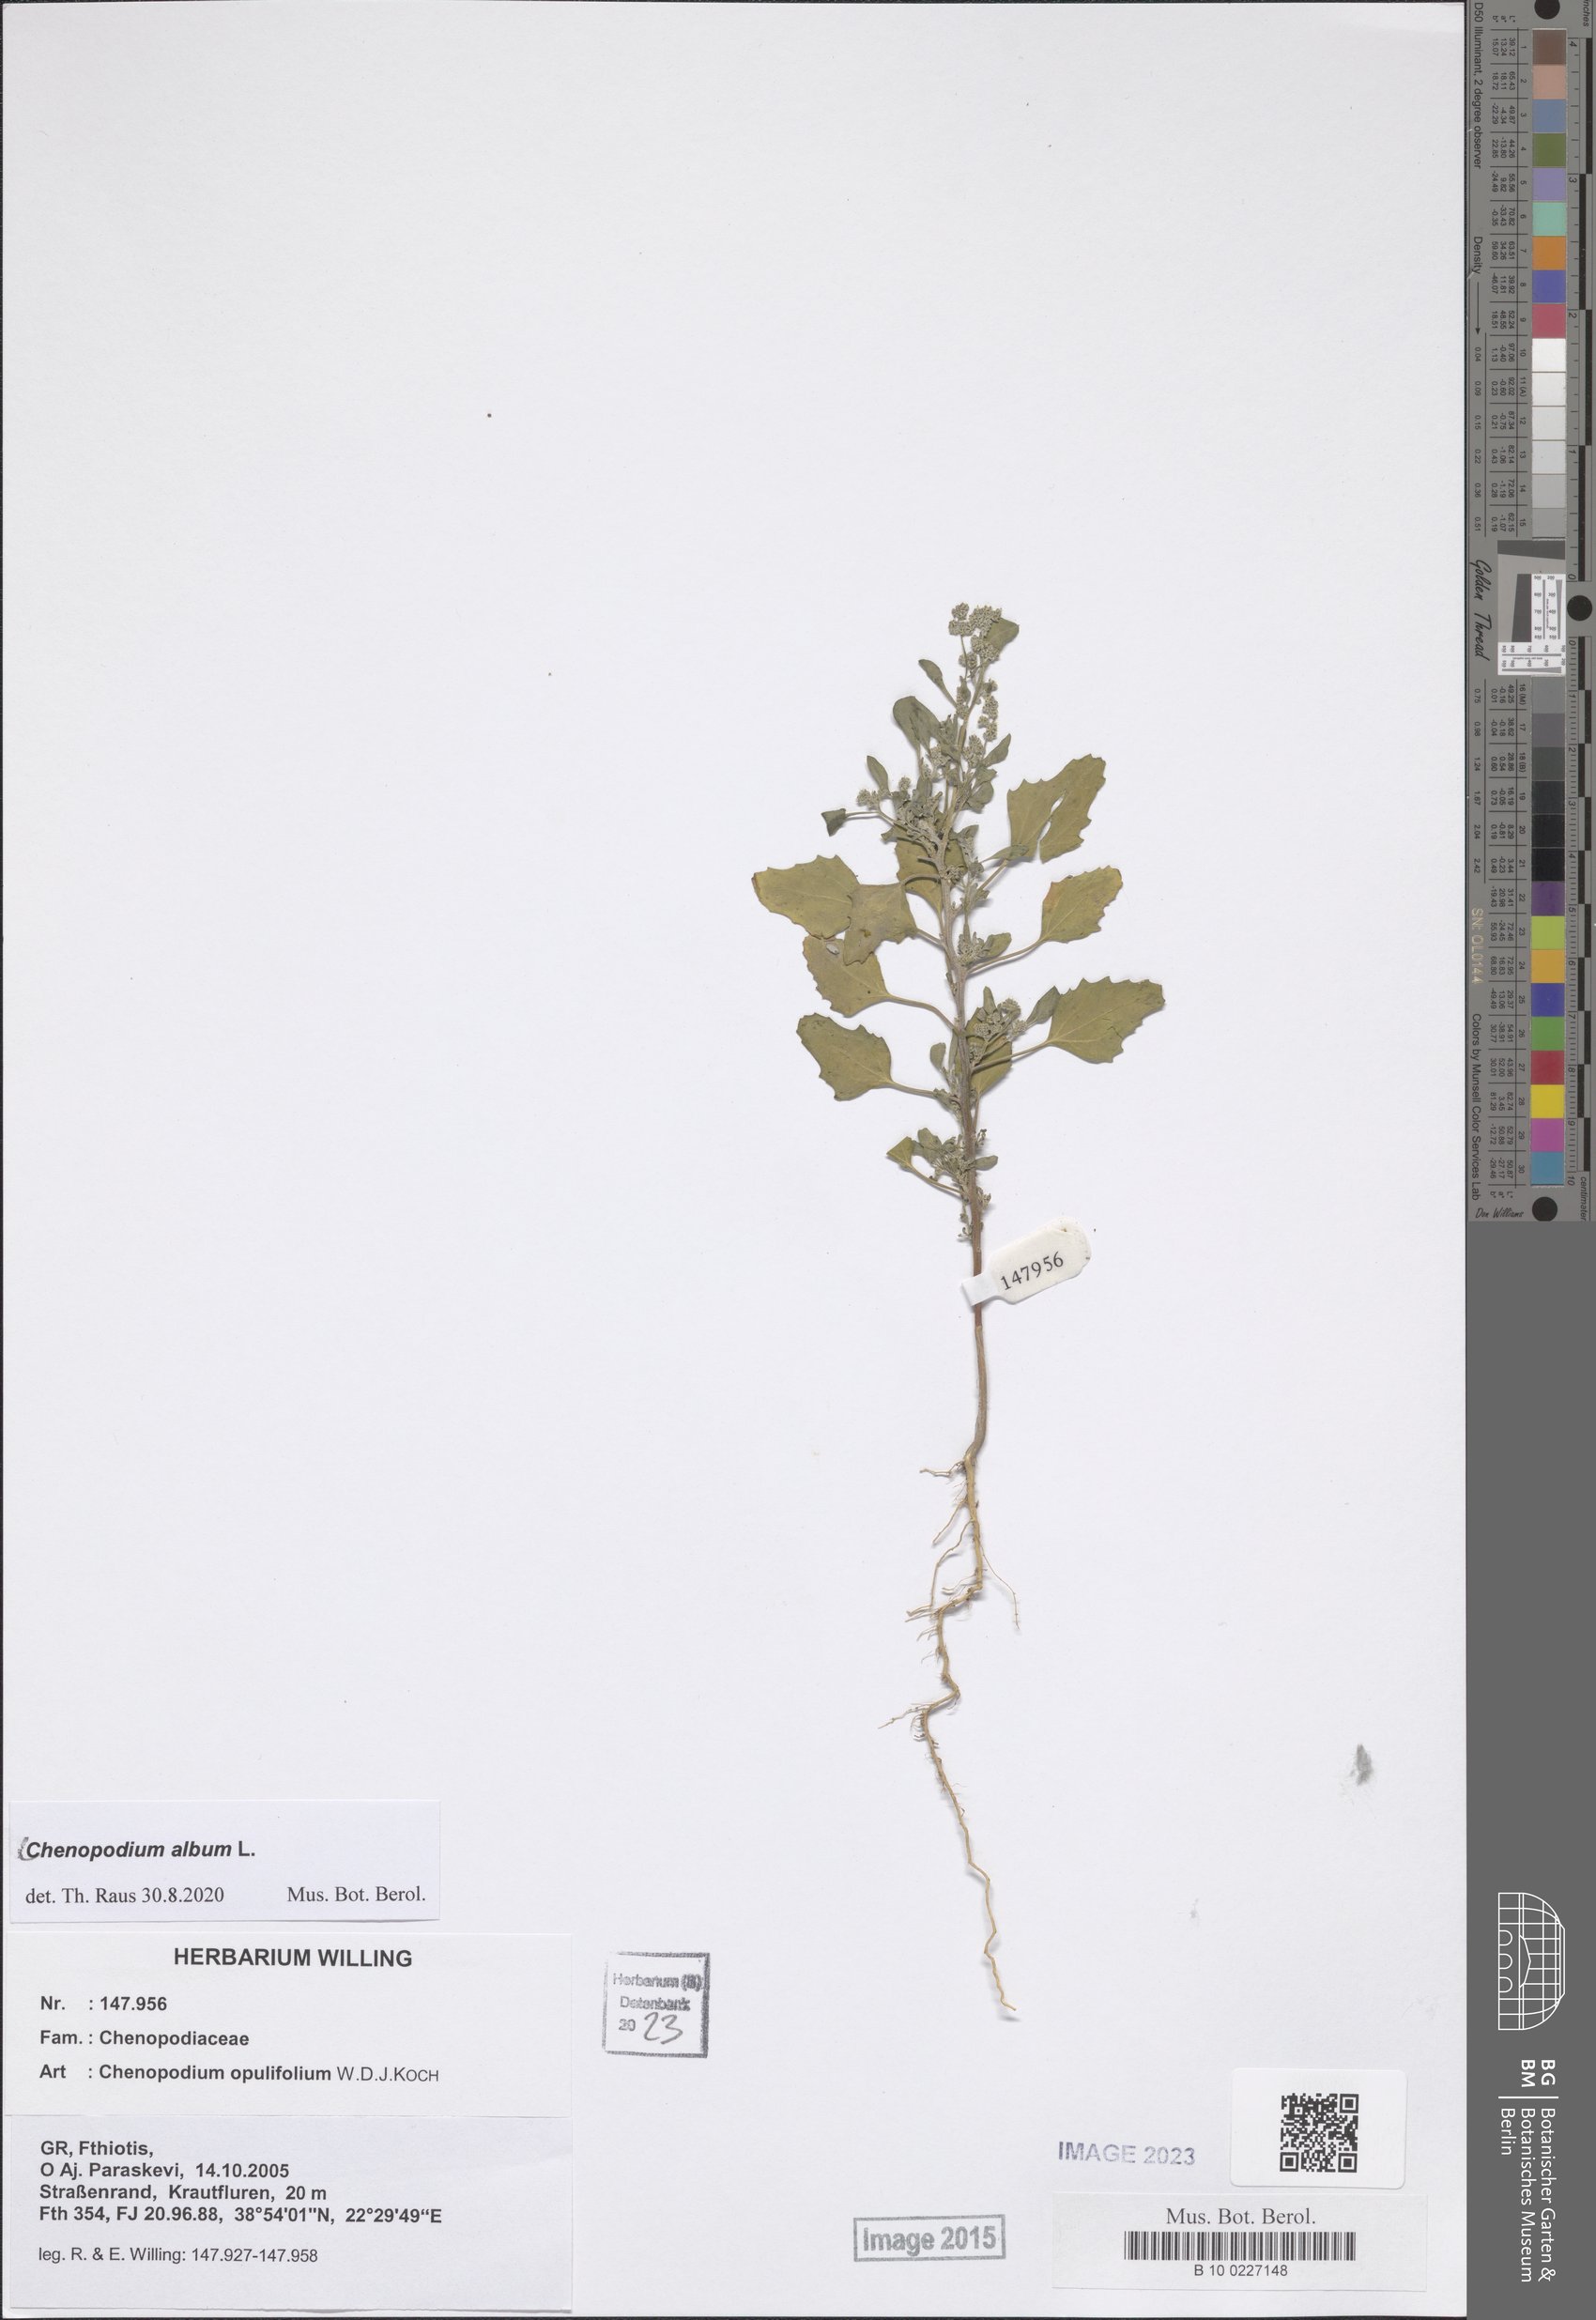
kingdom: Plantae
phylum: Tracheophyta
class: Magnoliopsida
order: Caryophyllales
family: Amaranthaceae
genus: Chenopodium
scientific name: Chenopodium album
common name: Fat-hen
